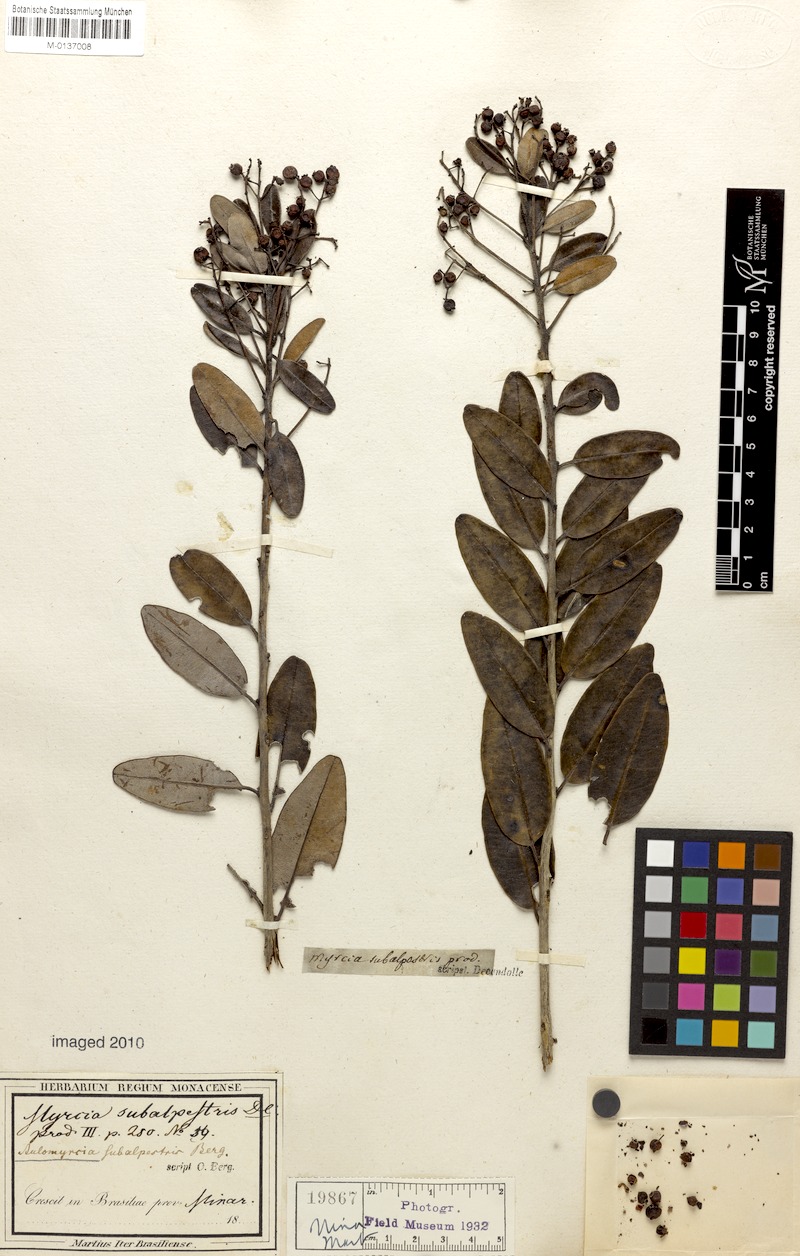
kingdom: Plantae
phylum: Tracheophyta
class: Magnoliopsida
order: Myrtales
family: Myrtaceae
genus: Myrcia
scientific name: Myrcia subalpestris
